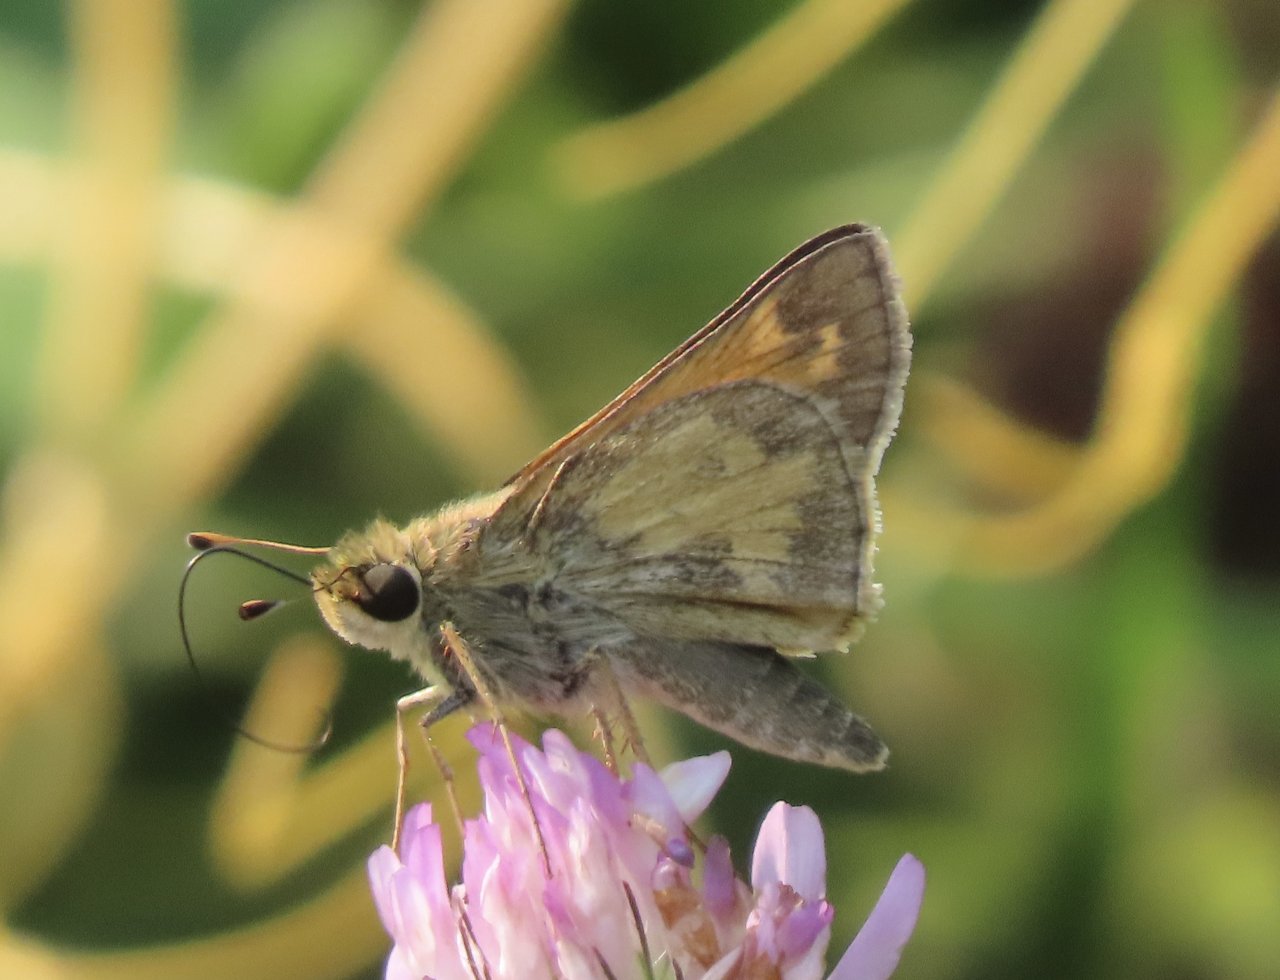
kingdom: Animalia
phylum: Arthropoda
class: Insecta
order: Lepidoptera
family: Hesperiidae
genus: Atalopedes
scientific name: Atalopedes campestris
